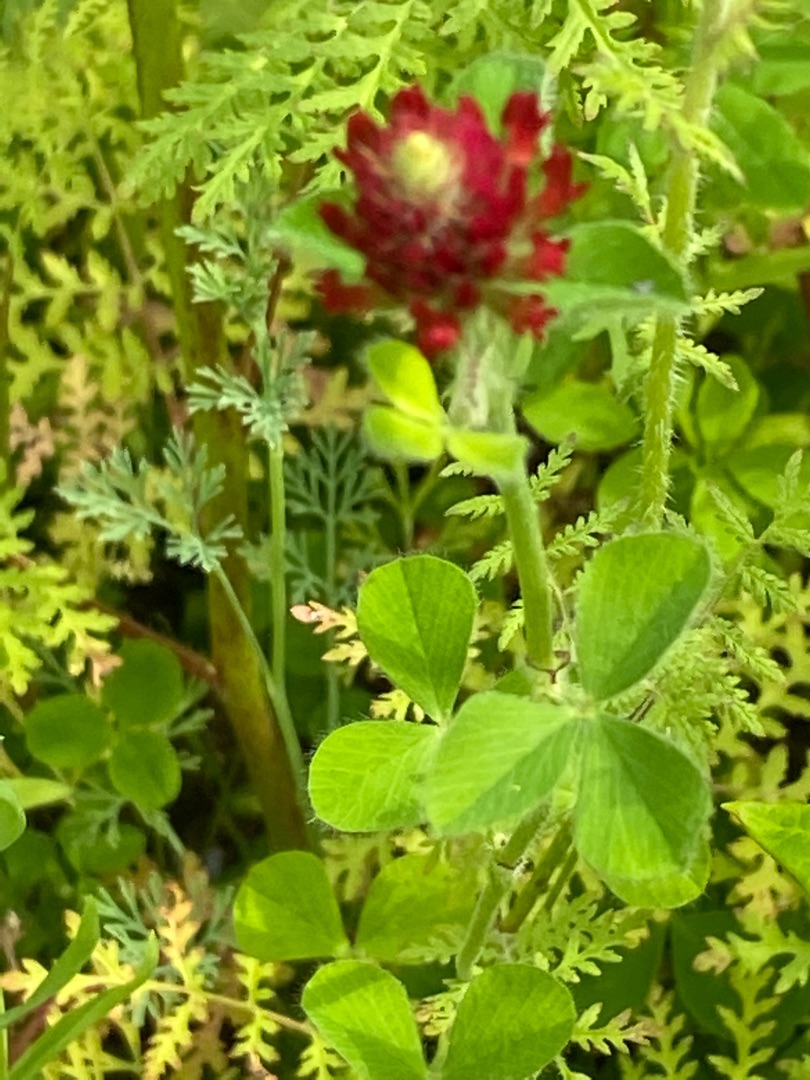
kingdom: Plantae
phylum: Tracheophyta
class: Magnoliopsida
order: Fabales
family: Fabaceae
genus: Trifolium
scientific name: Trifolium incarnatum
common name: Blod-kløver
